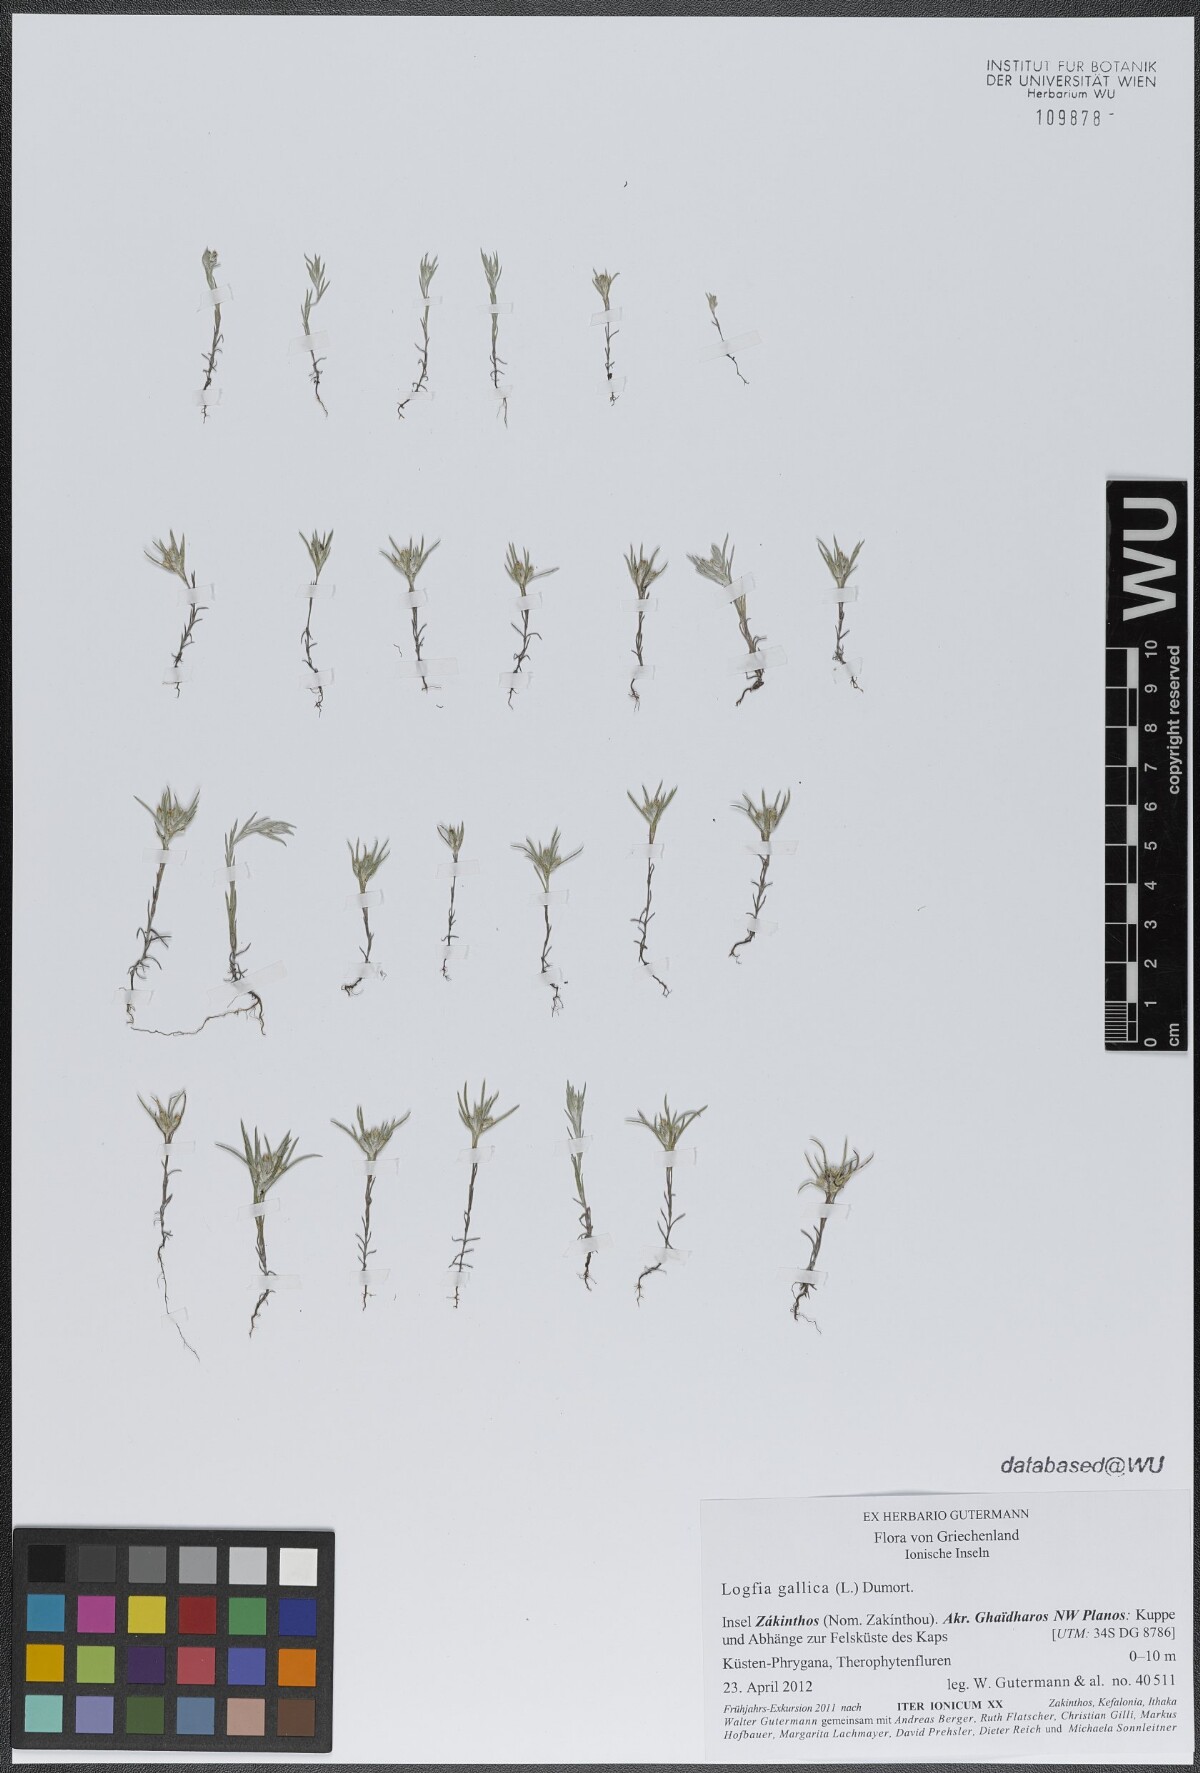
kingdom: Plantae
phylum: Tracheophyta
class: Magnoliopsida
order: Asterales
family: Asteraceae
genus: Logfia
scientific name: Logfia gallica
